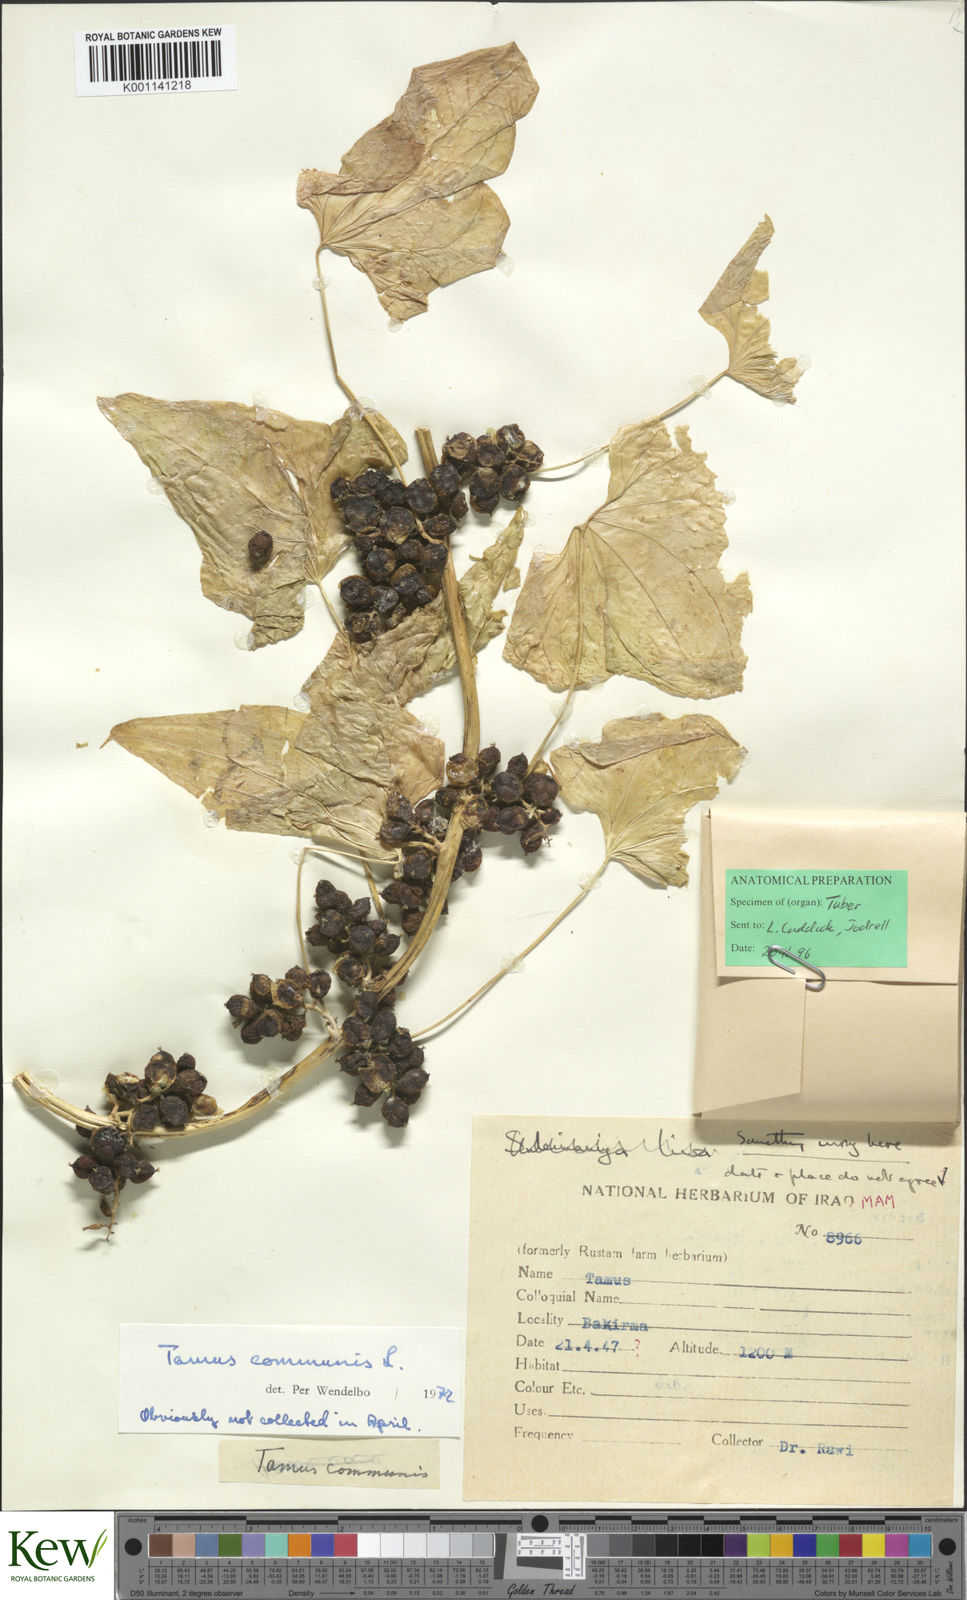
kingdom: Plantae
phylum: Tracheophyta
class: Liliopsida
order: Dioscoreales
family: Dioscoreaceae
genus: Dioscorea
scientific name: Dioscorea communis
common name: Black-bindweed
